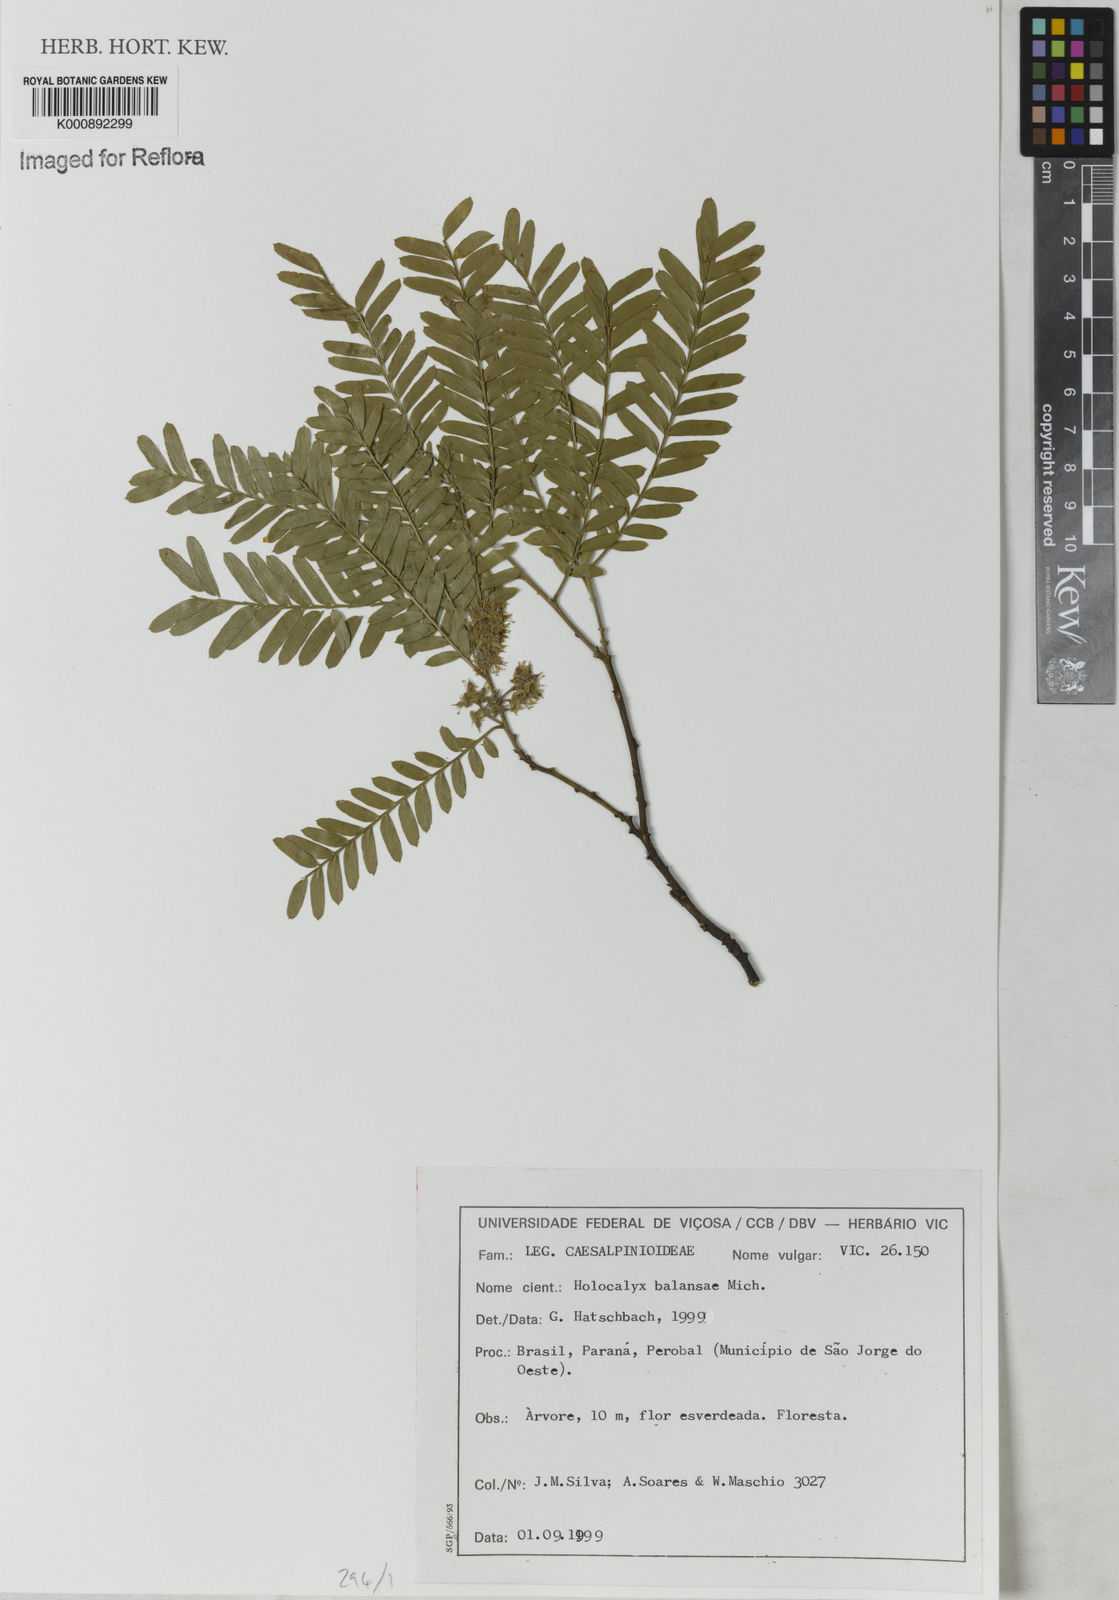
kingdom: Plantae
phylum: Tracheophyta
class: Magnoliopsida
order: Fabales
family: Fabaceae
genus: Holocalyx
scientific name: Holocalyx
